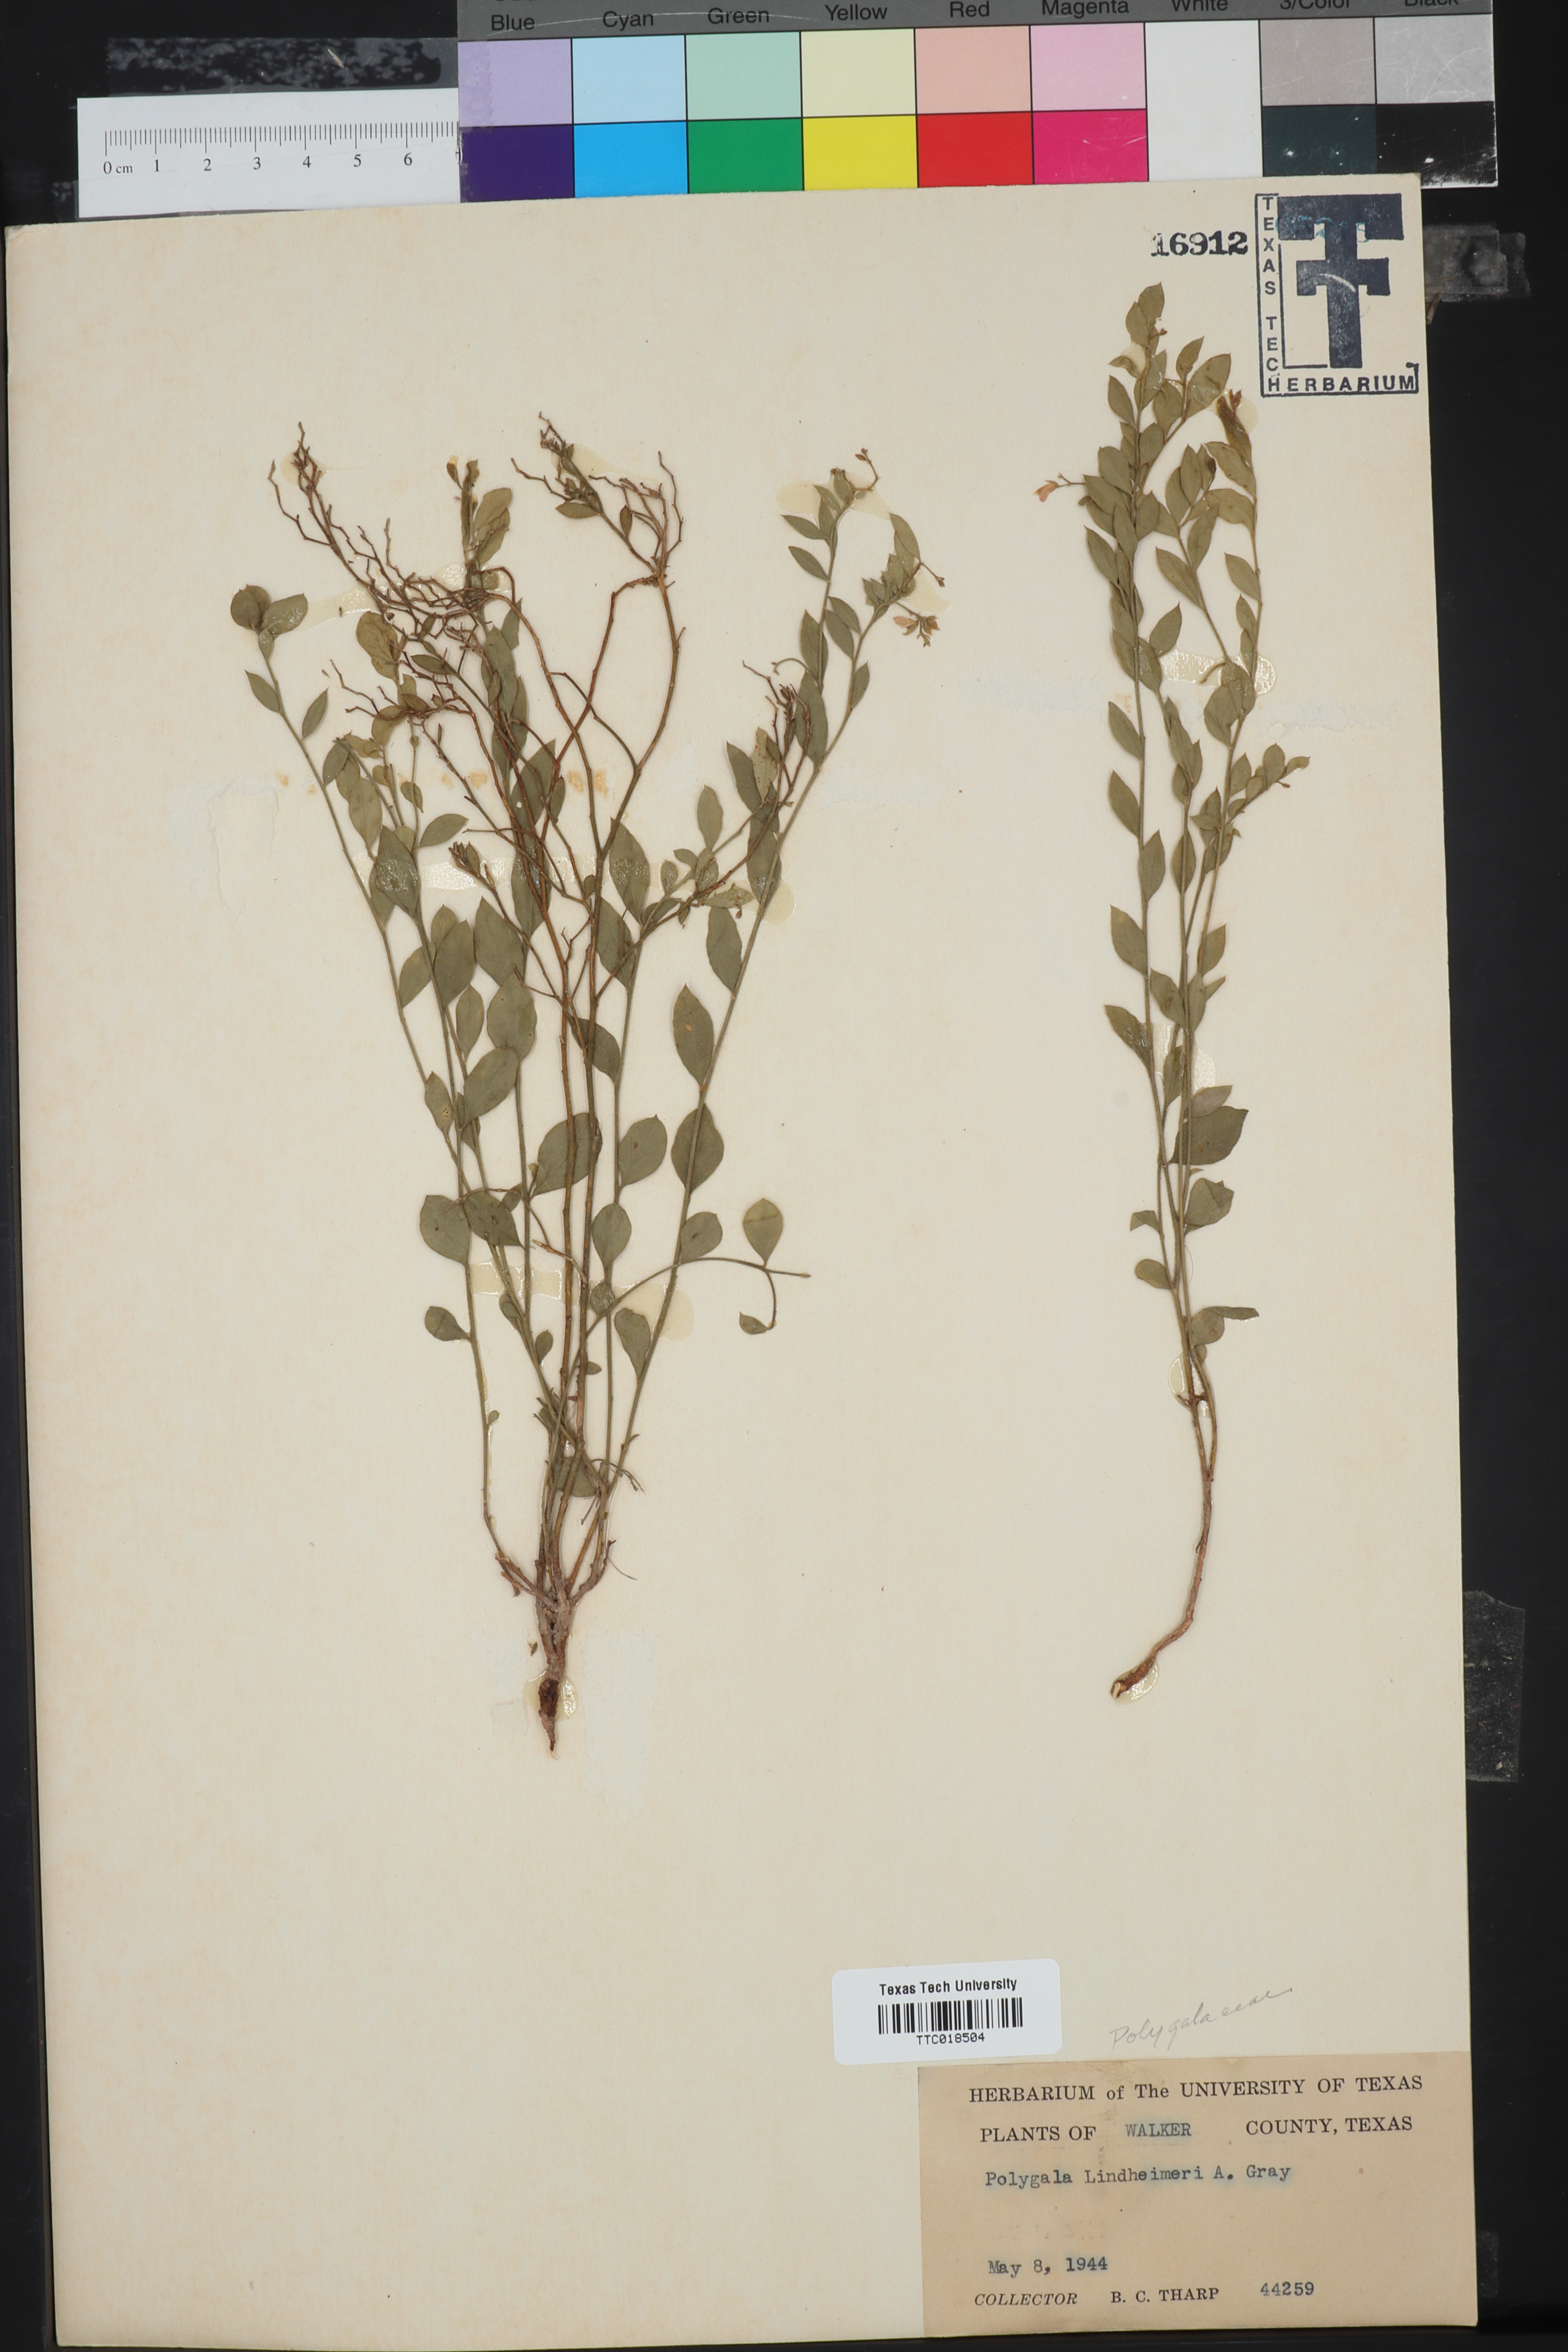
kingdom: Plantae
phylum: Tracheophyta
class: Magnoliopsida
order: Fabales
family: Polygalaceae
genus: Rhinotropis
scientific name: Rhinotropis lindheimeri
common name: Shrubby milkwort
